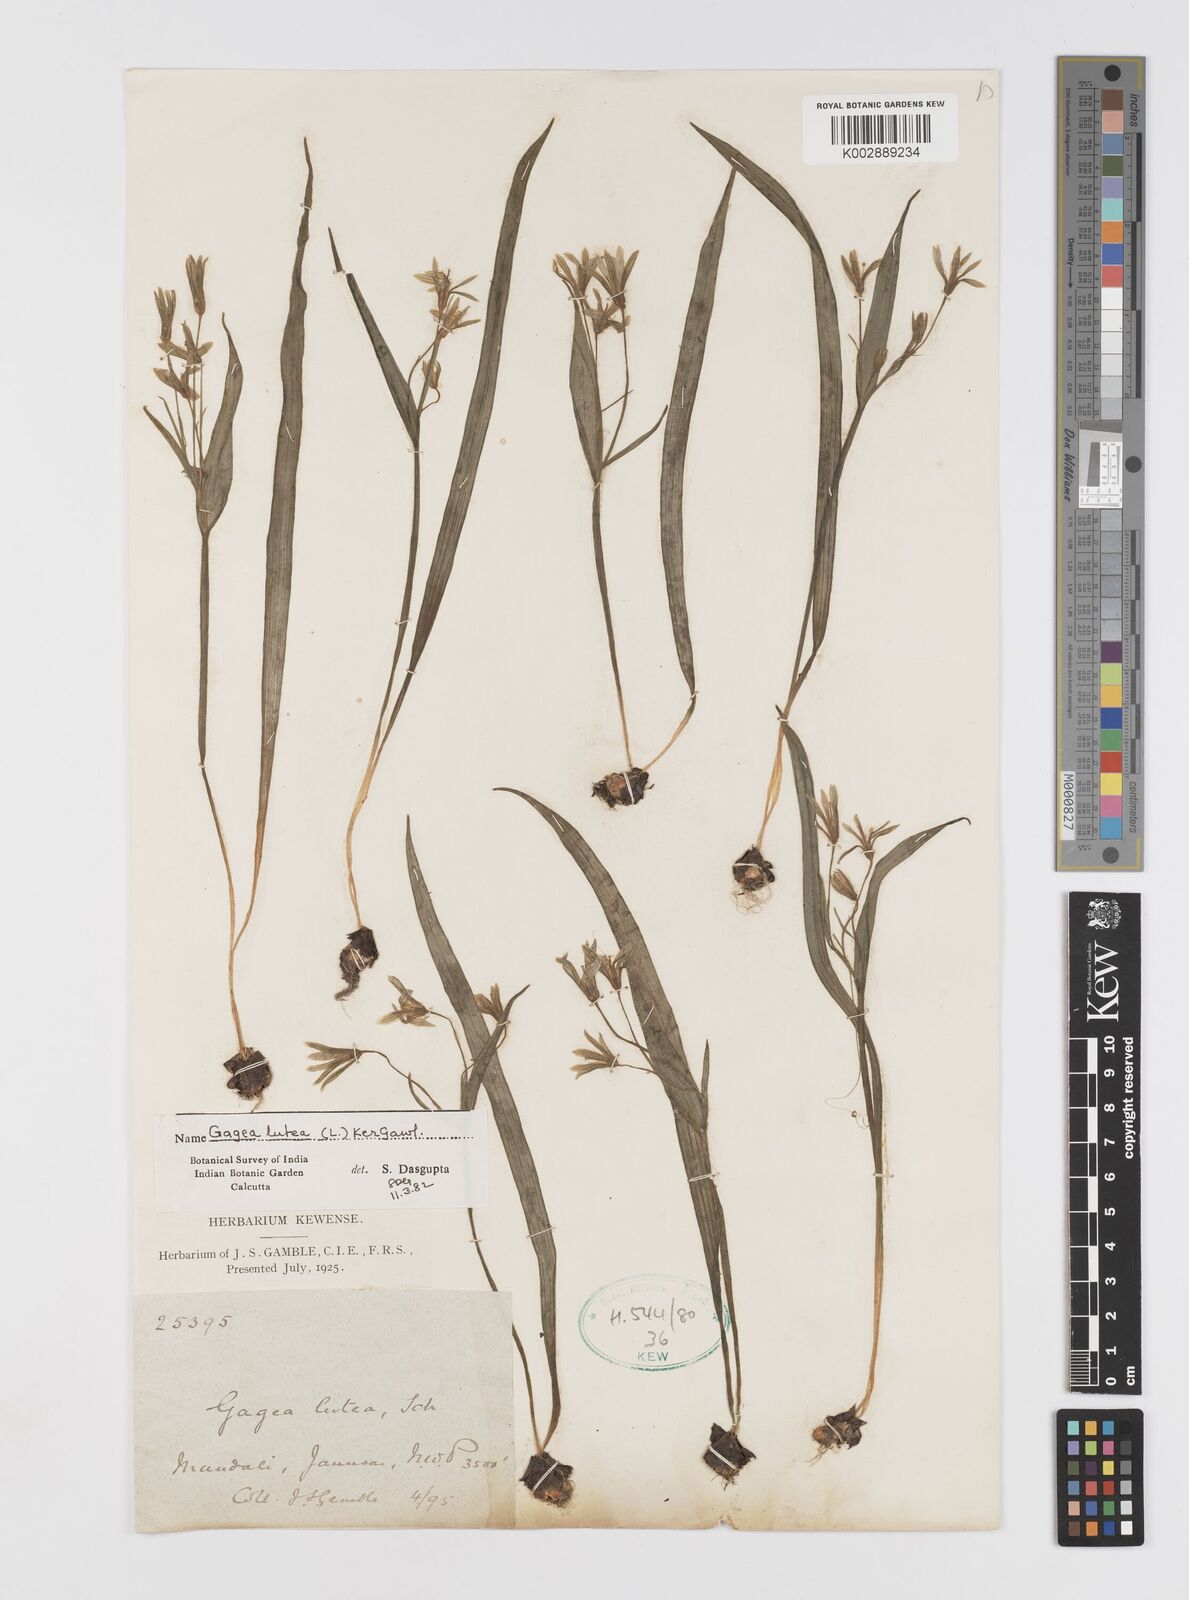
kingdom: Plantae
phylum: Tracheophyta
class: Liliopsida
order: Liliales
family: Liliaceae
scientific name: Liliaceae
